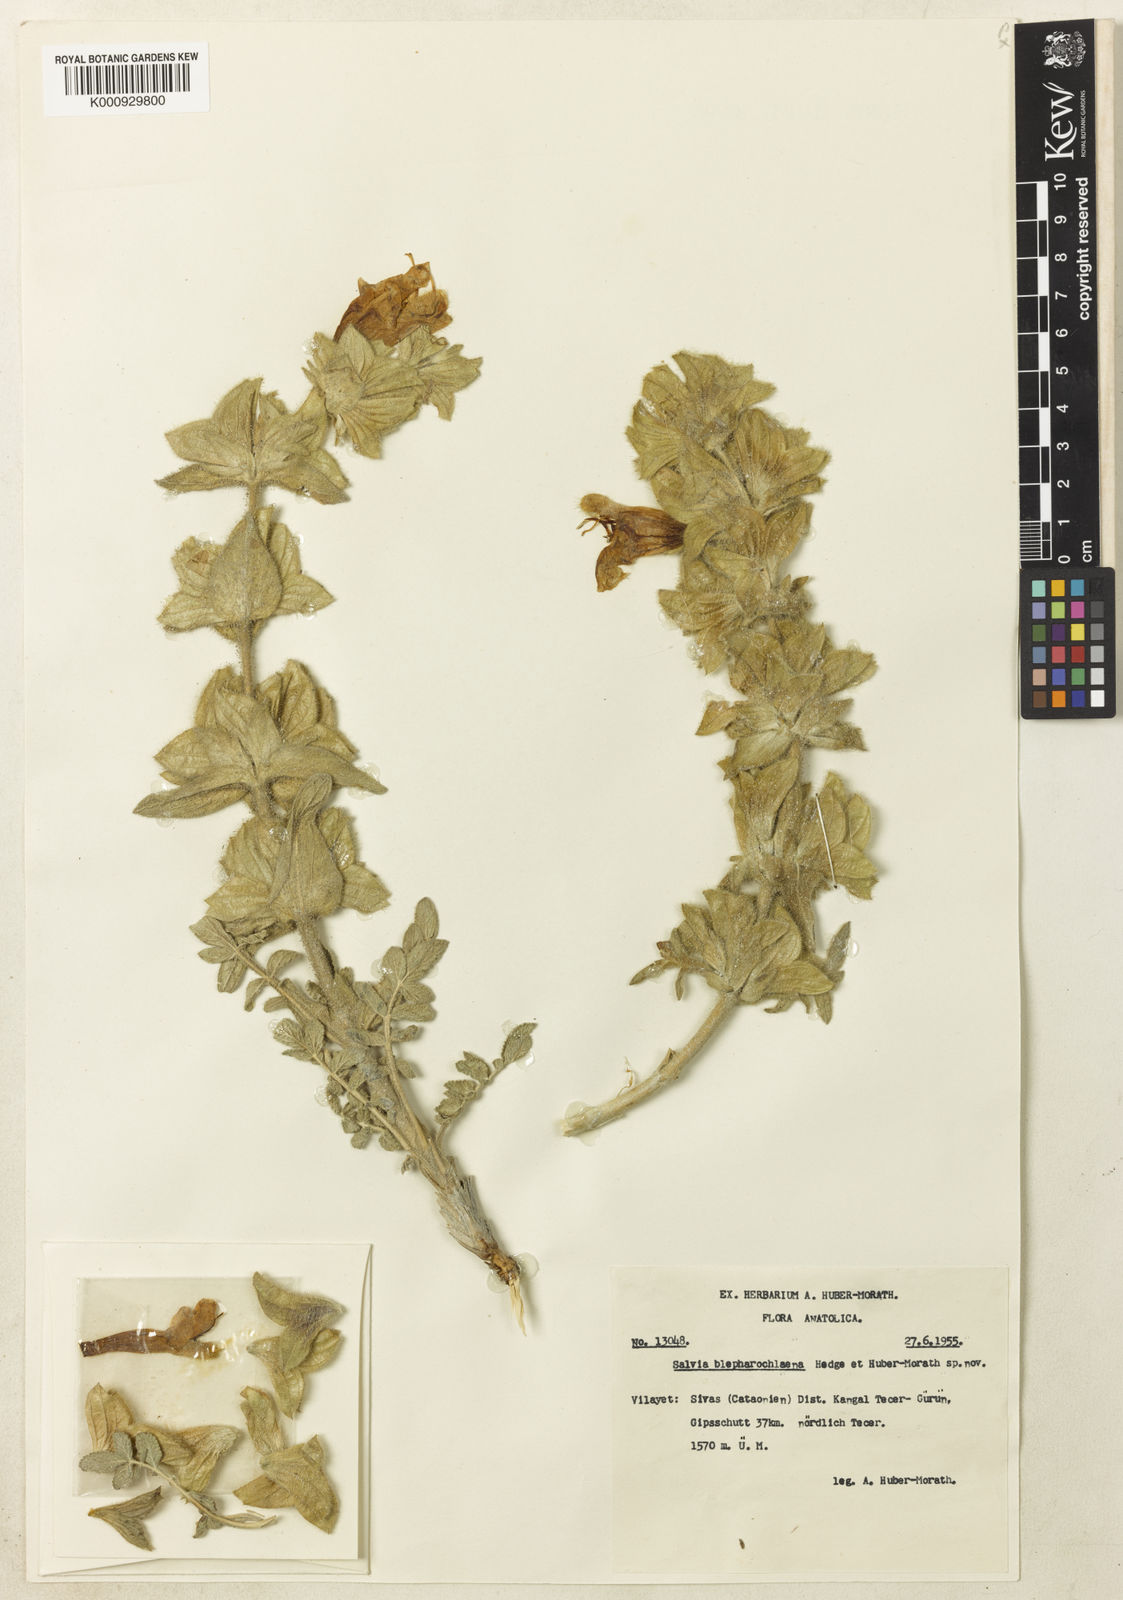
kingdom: Plantae
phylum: Tracheophyta
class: Magnoliopsida
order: Lamiales
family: Lamiaceae
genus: Salvia
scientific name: Salvia blepharochlaena
